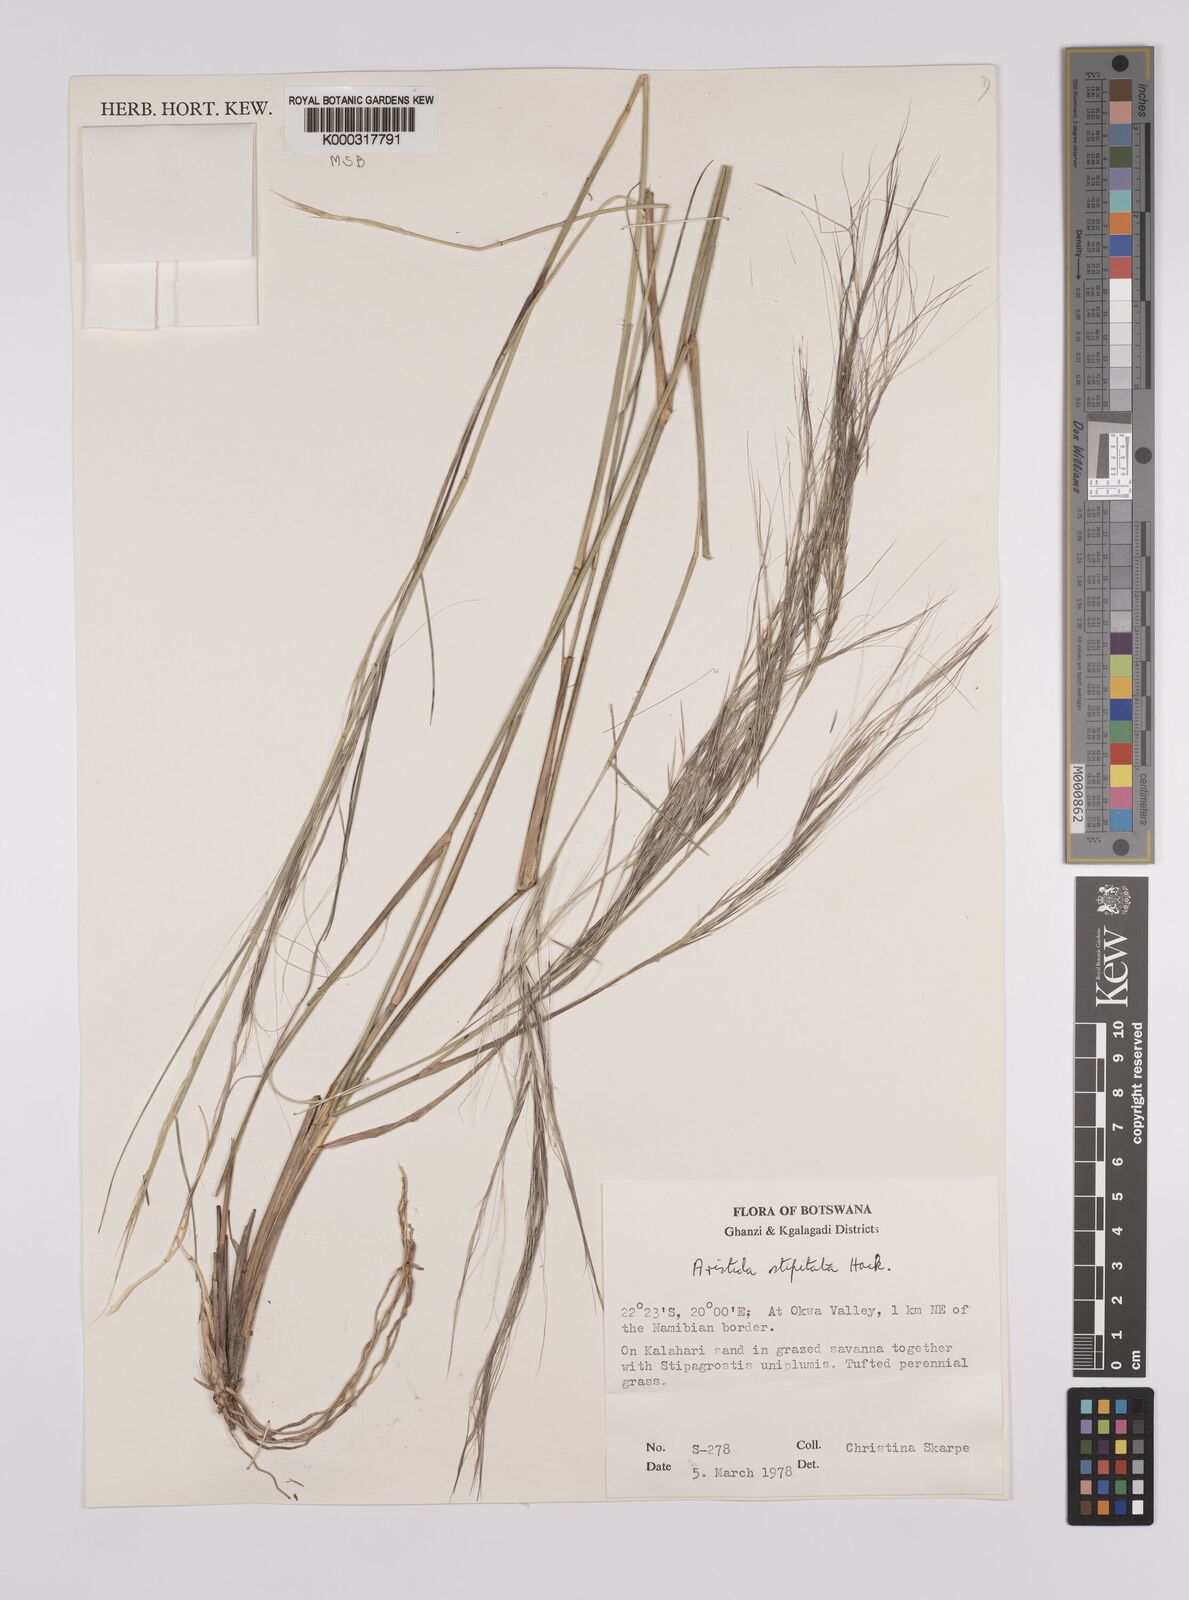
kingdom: Plantae
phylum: Tracheophyta
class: Liliopsida
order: Poales
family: Poaceae
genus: Aristida
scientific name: Aristida stipitata
